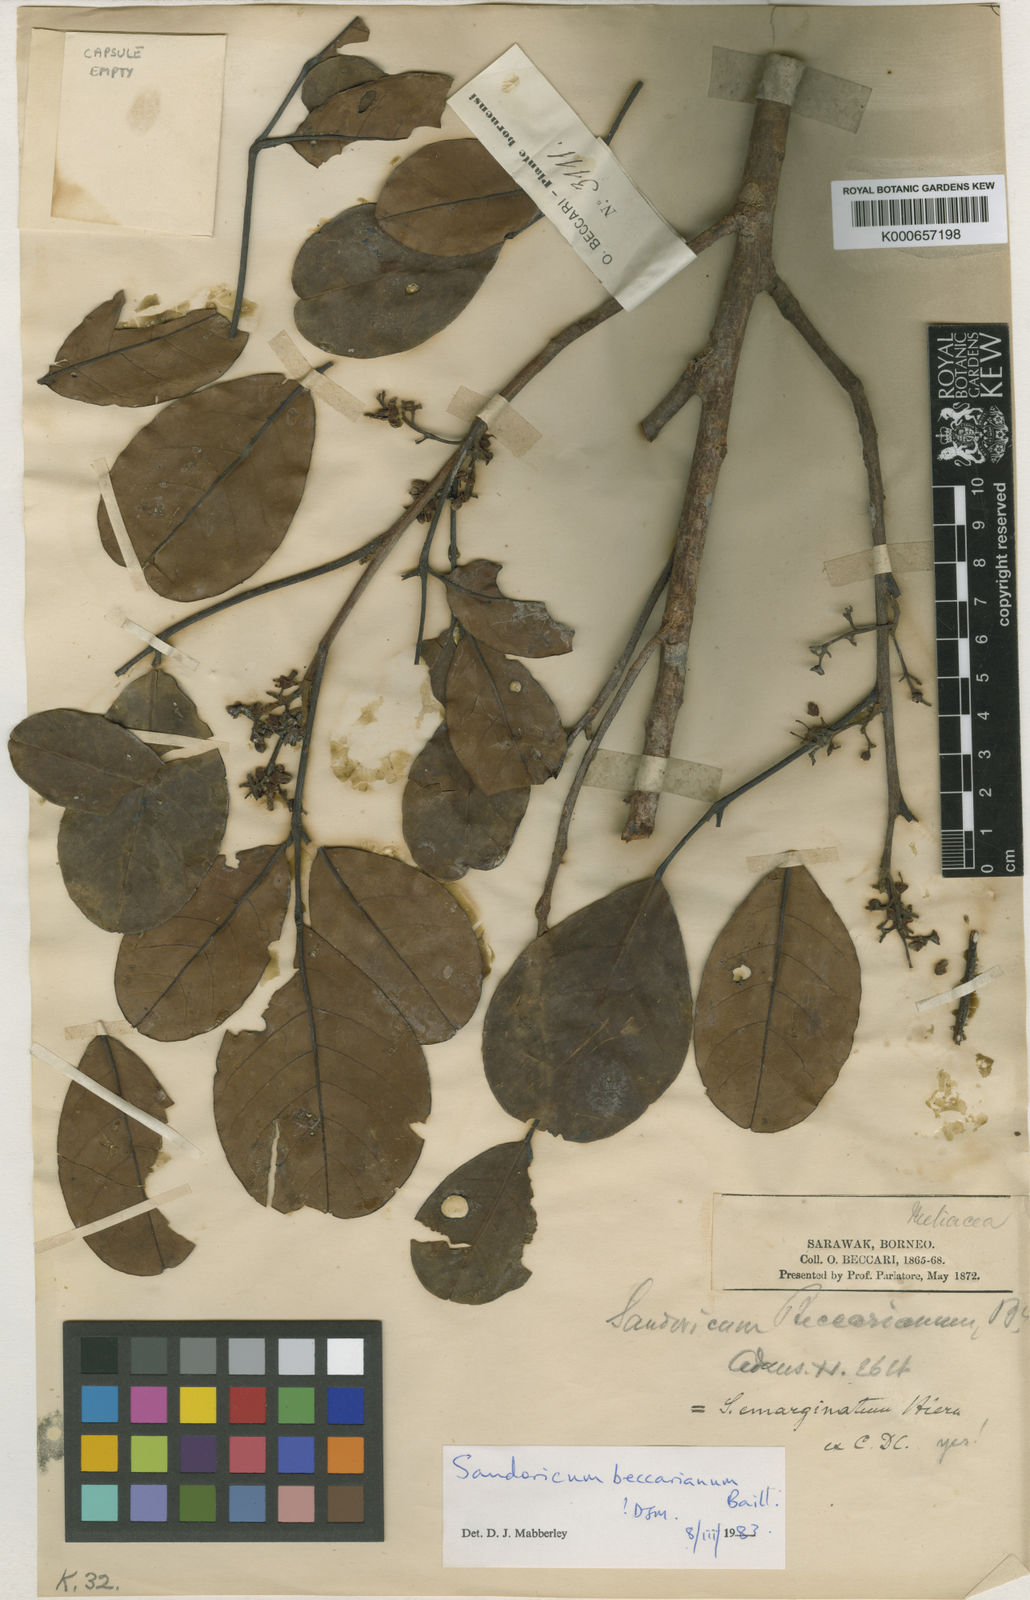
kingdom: Plantae
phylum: Tracheophyta
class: Magnoliopsida
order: Sapindales
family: Meliaceae
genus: Sandoricum
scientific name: Sandoricum beccarianum
